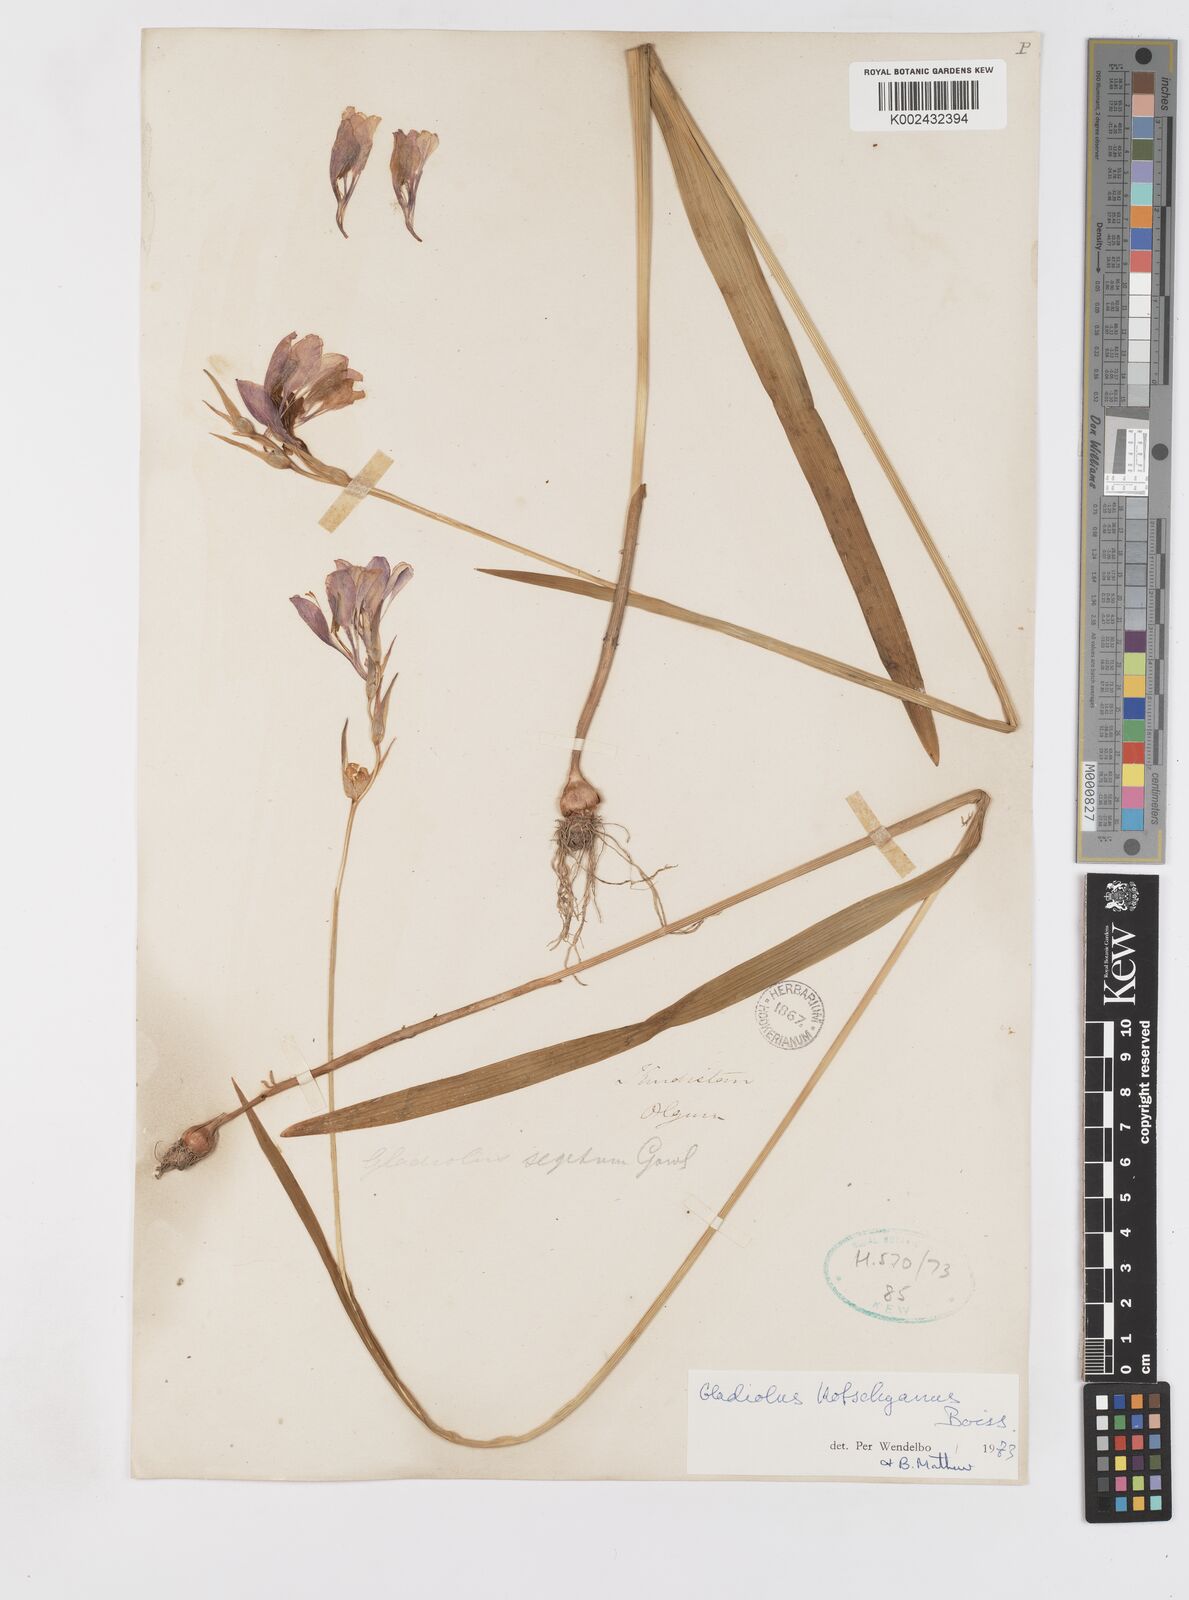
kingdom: Plantae
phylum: Tracheophyta
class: Liliopsida
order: Asparagales
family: Iridaceae
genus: Gladiolus
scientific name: Gladiolus kotschyanus
